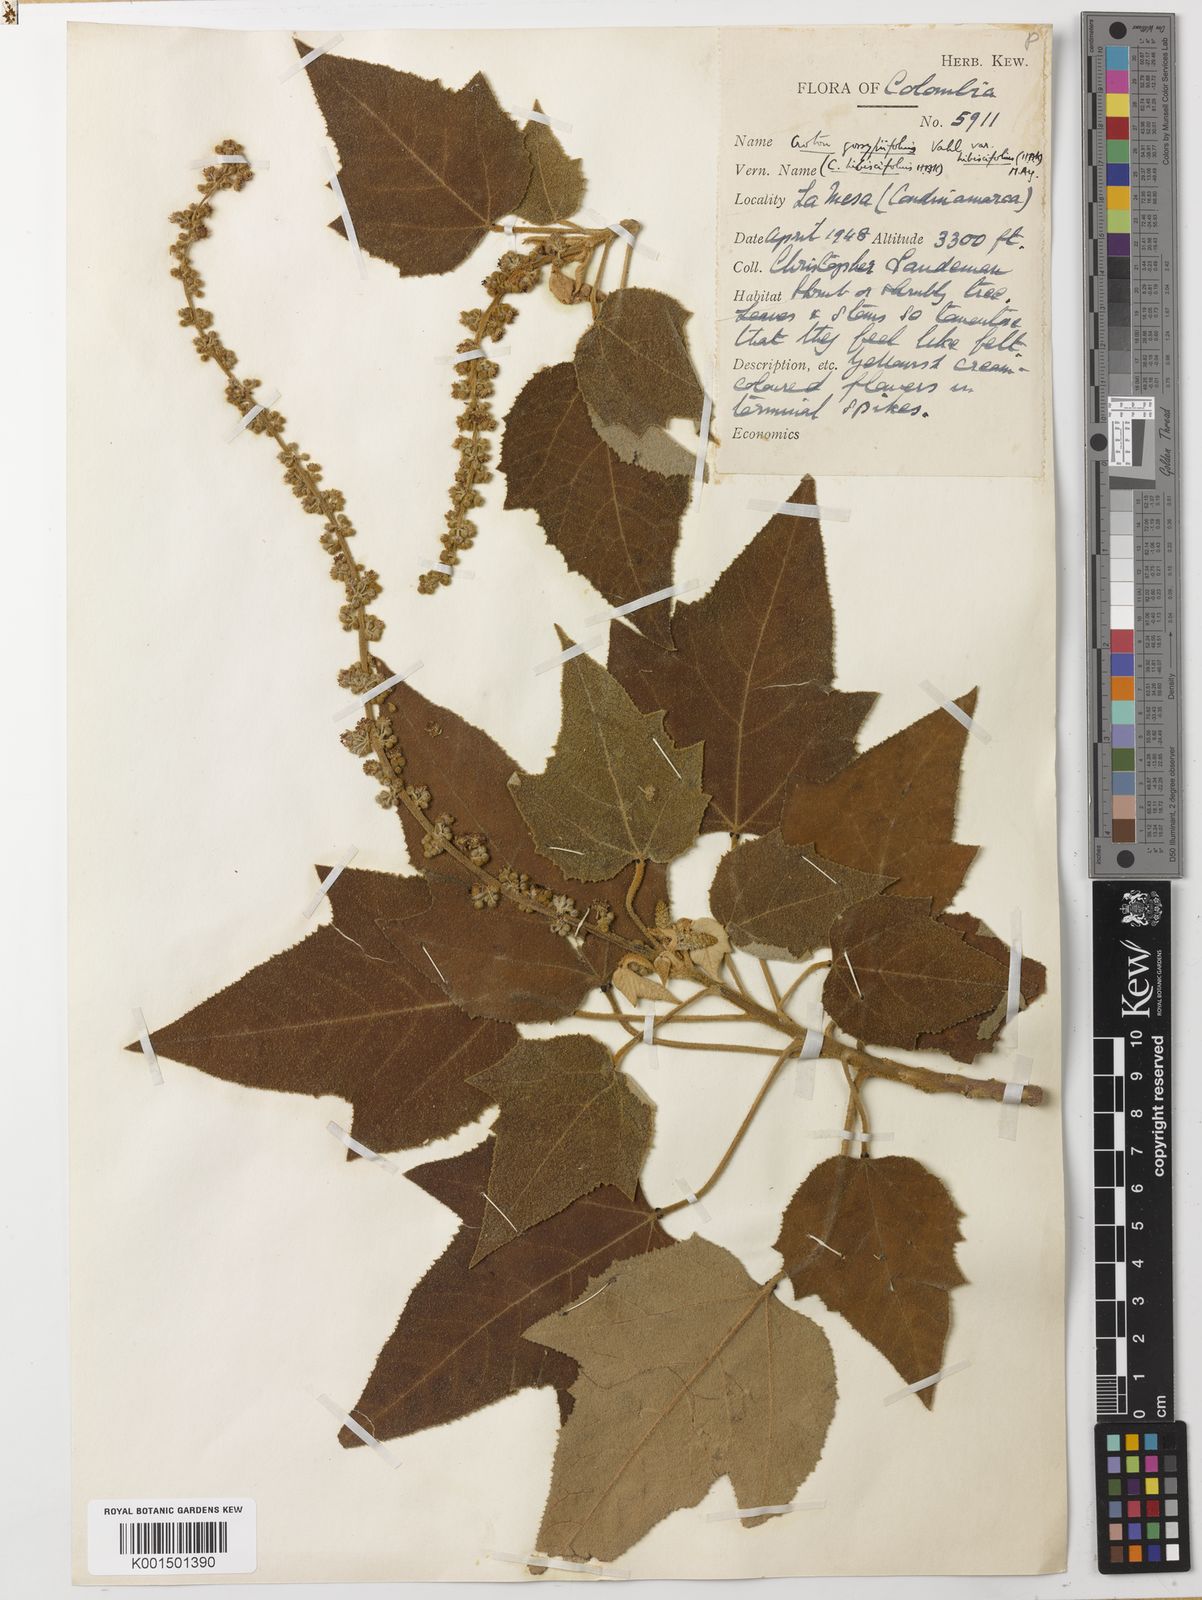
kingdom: Plantae
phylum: Tracheophyta
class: Magnoliopsida
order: Malpighiales
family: Euphorbiaceae
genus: Croton
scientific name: Croton hibiscifolius
